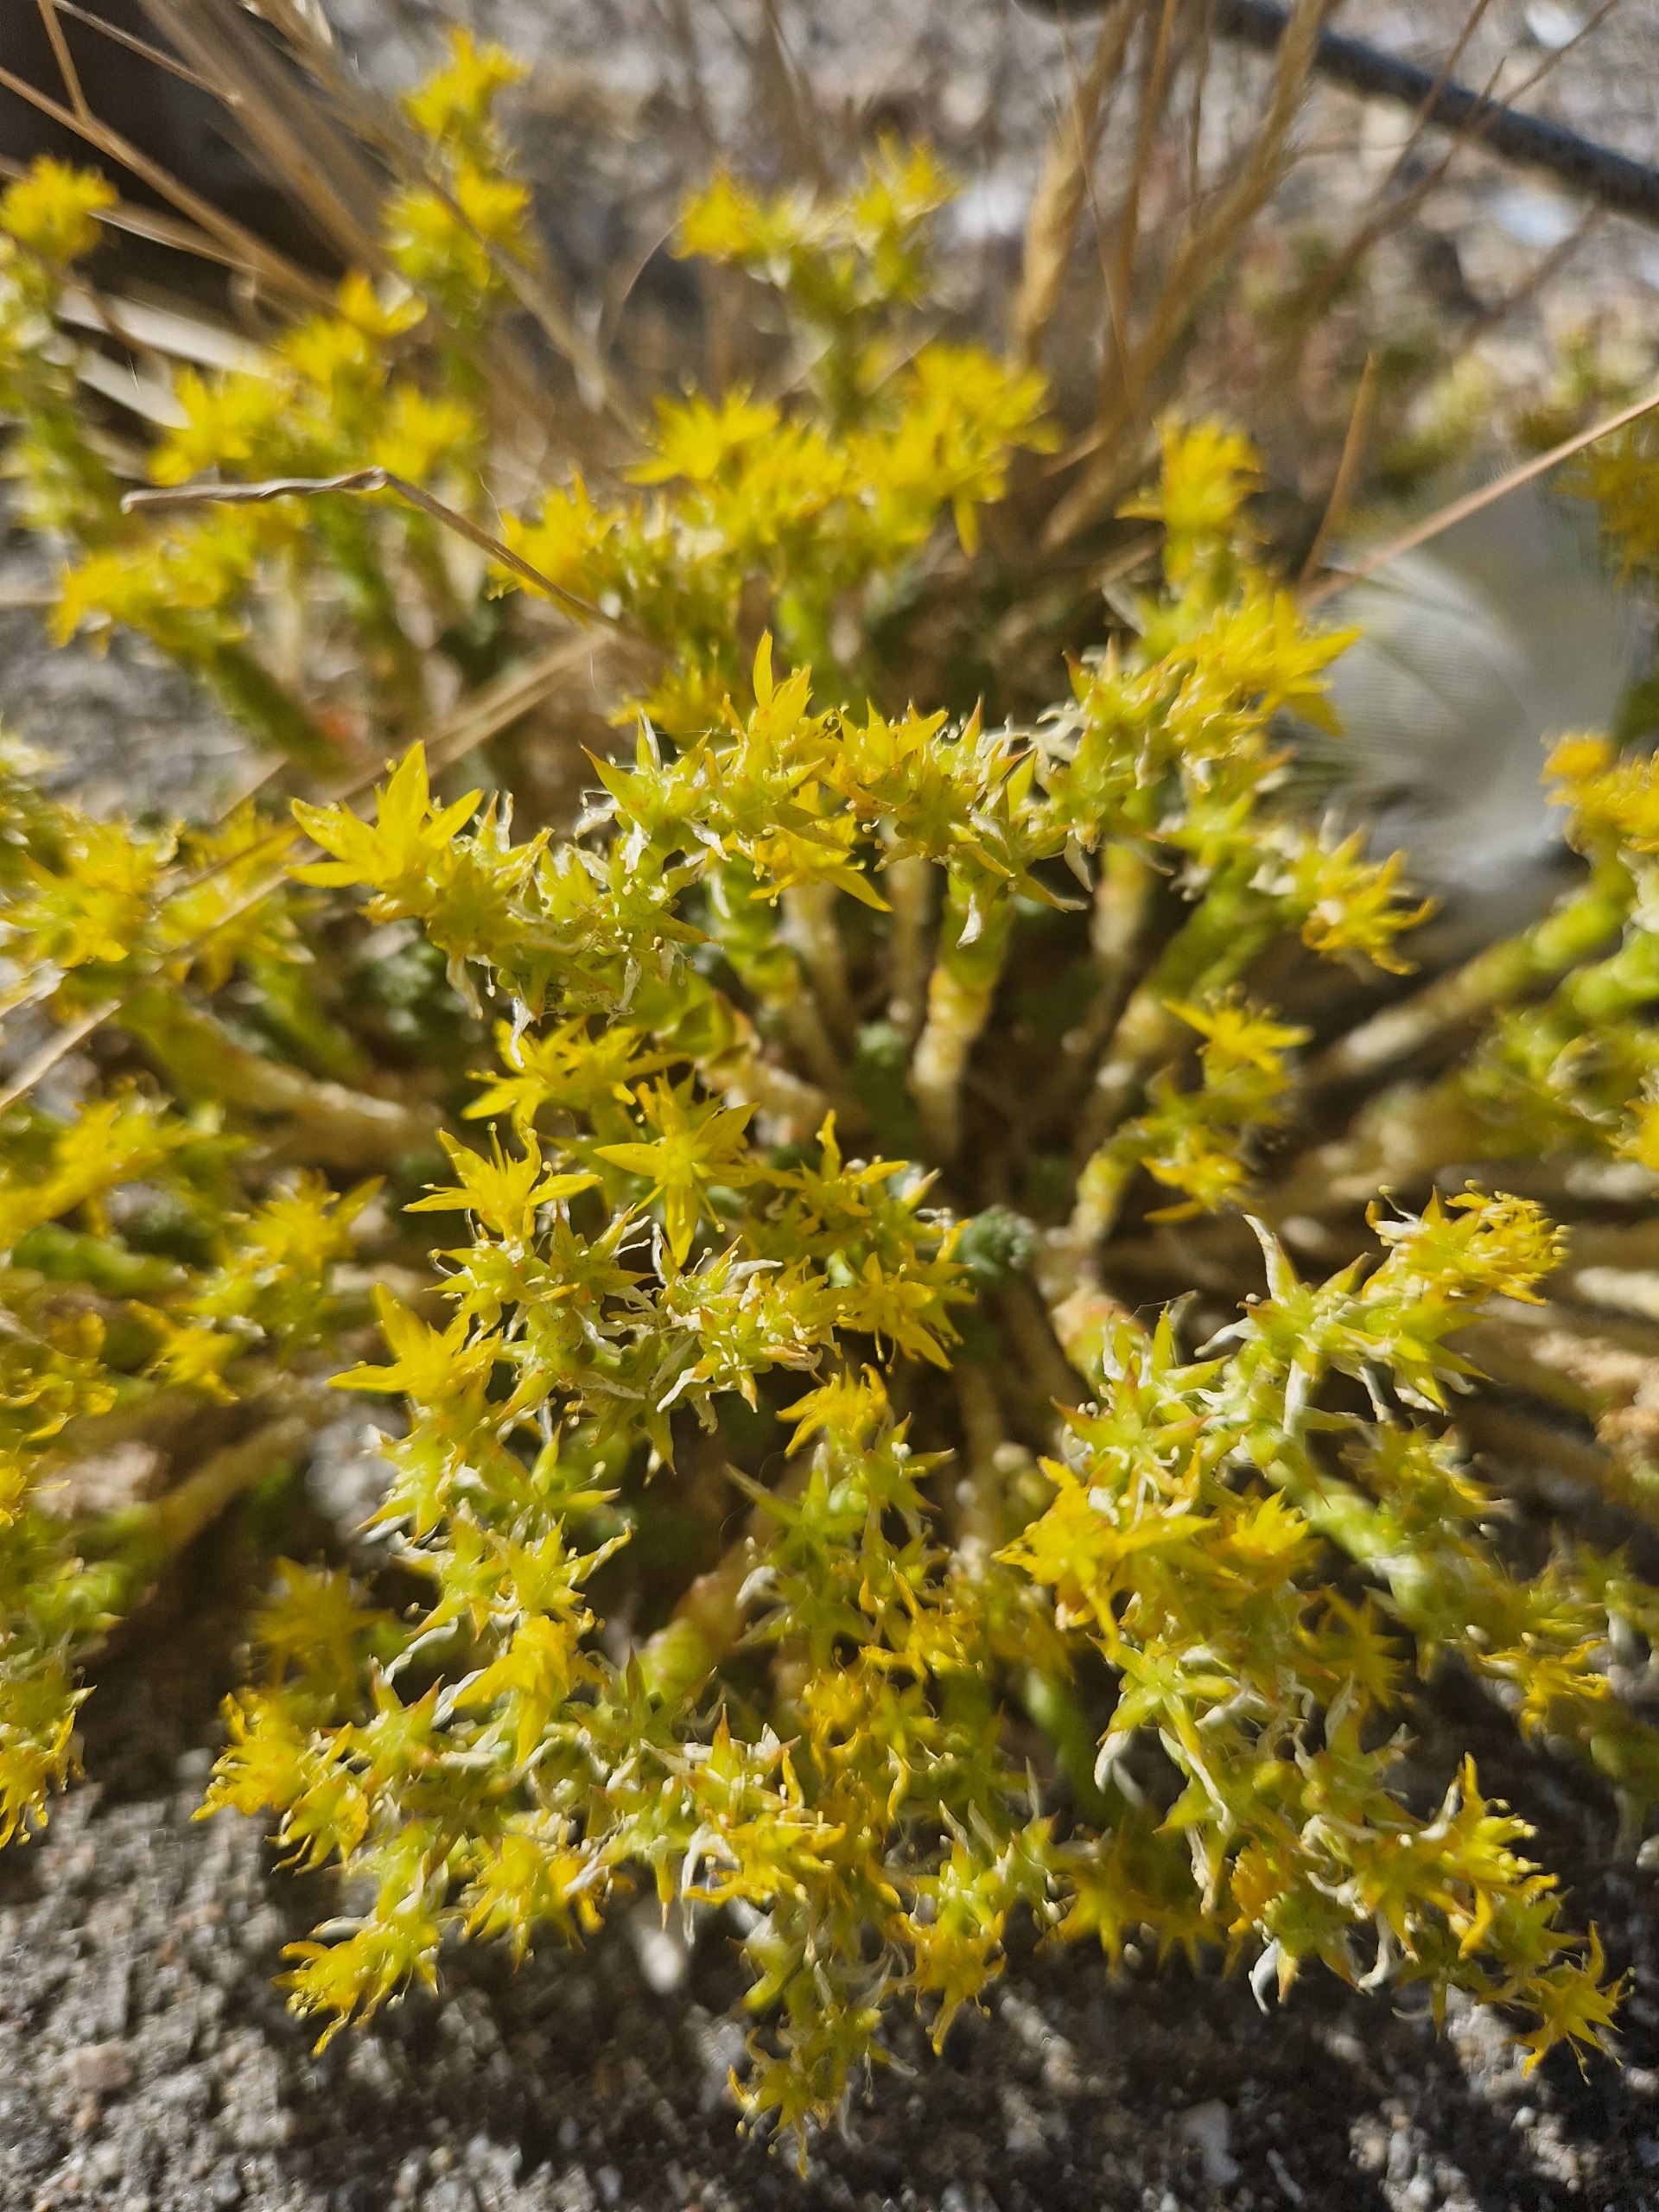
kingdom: Plantae
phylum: Tracheophyta
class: Magnoliopsida
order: Saxifragales
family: Crassulaceae
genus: Sedum
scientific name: Sedum acre
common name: Bidende stenurt
